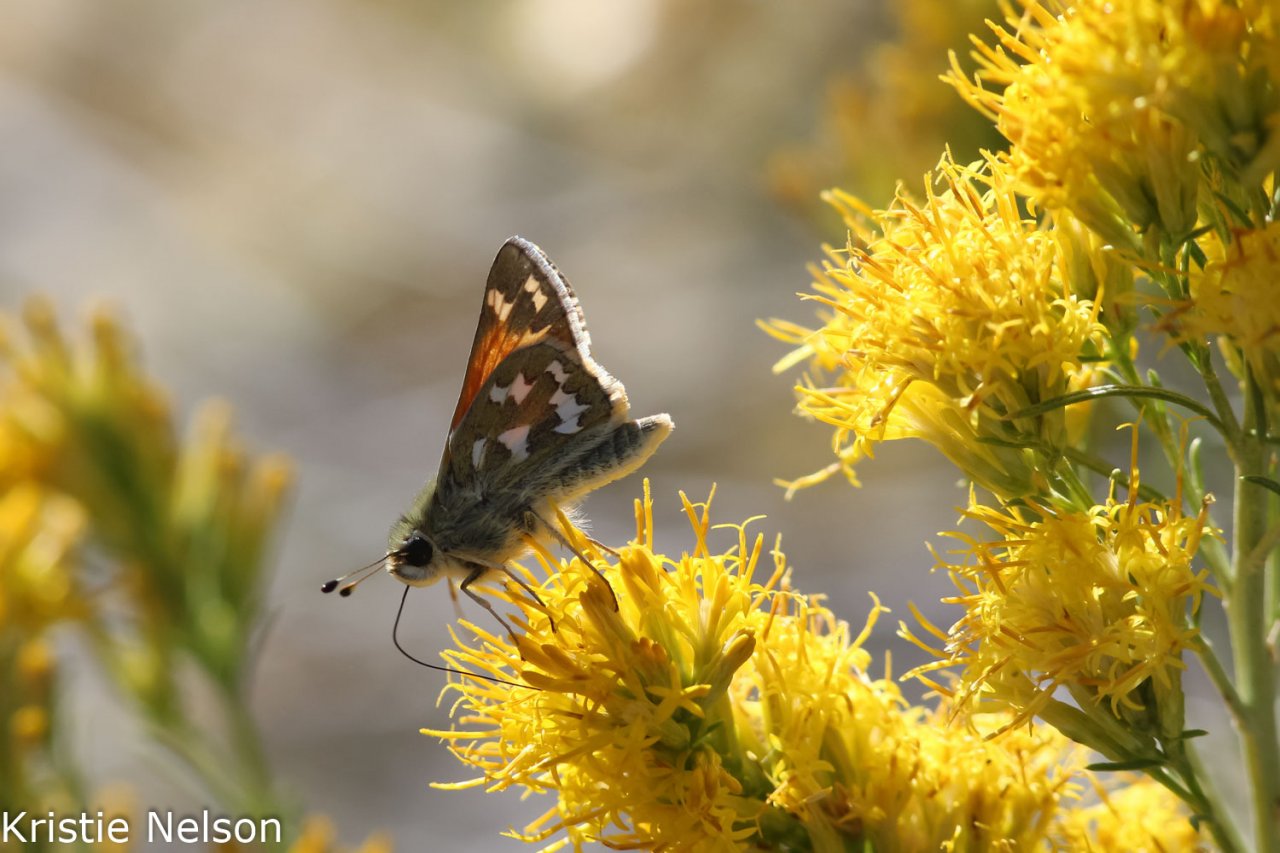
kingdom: Animalia
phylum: Arthropoda
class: Insecta
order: Lepidoptera
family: Hesperiidae
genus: Hesperia
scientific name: Hesperia juba
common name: Juba Skipper
